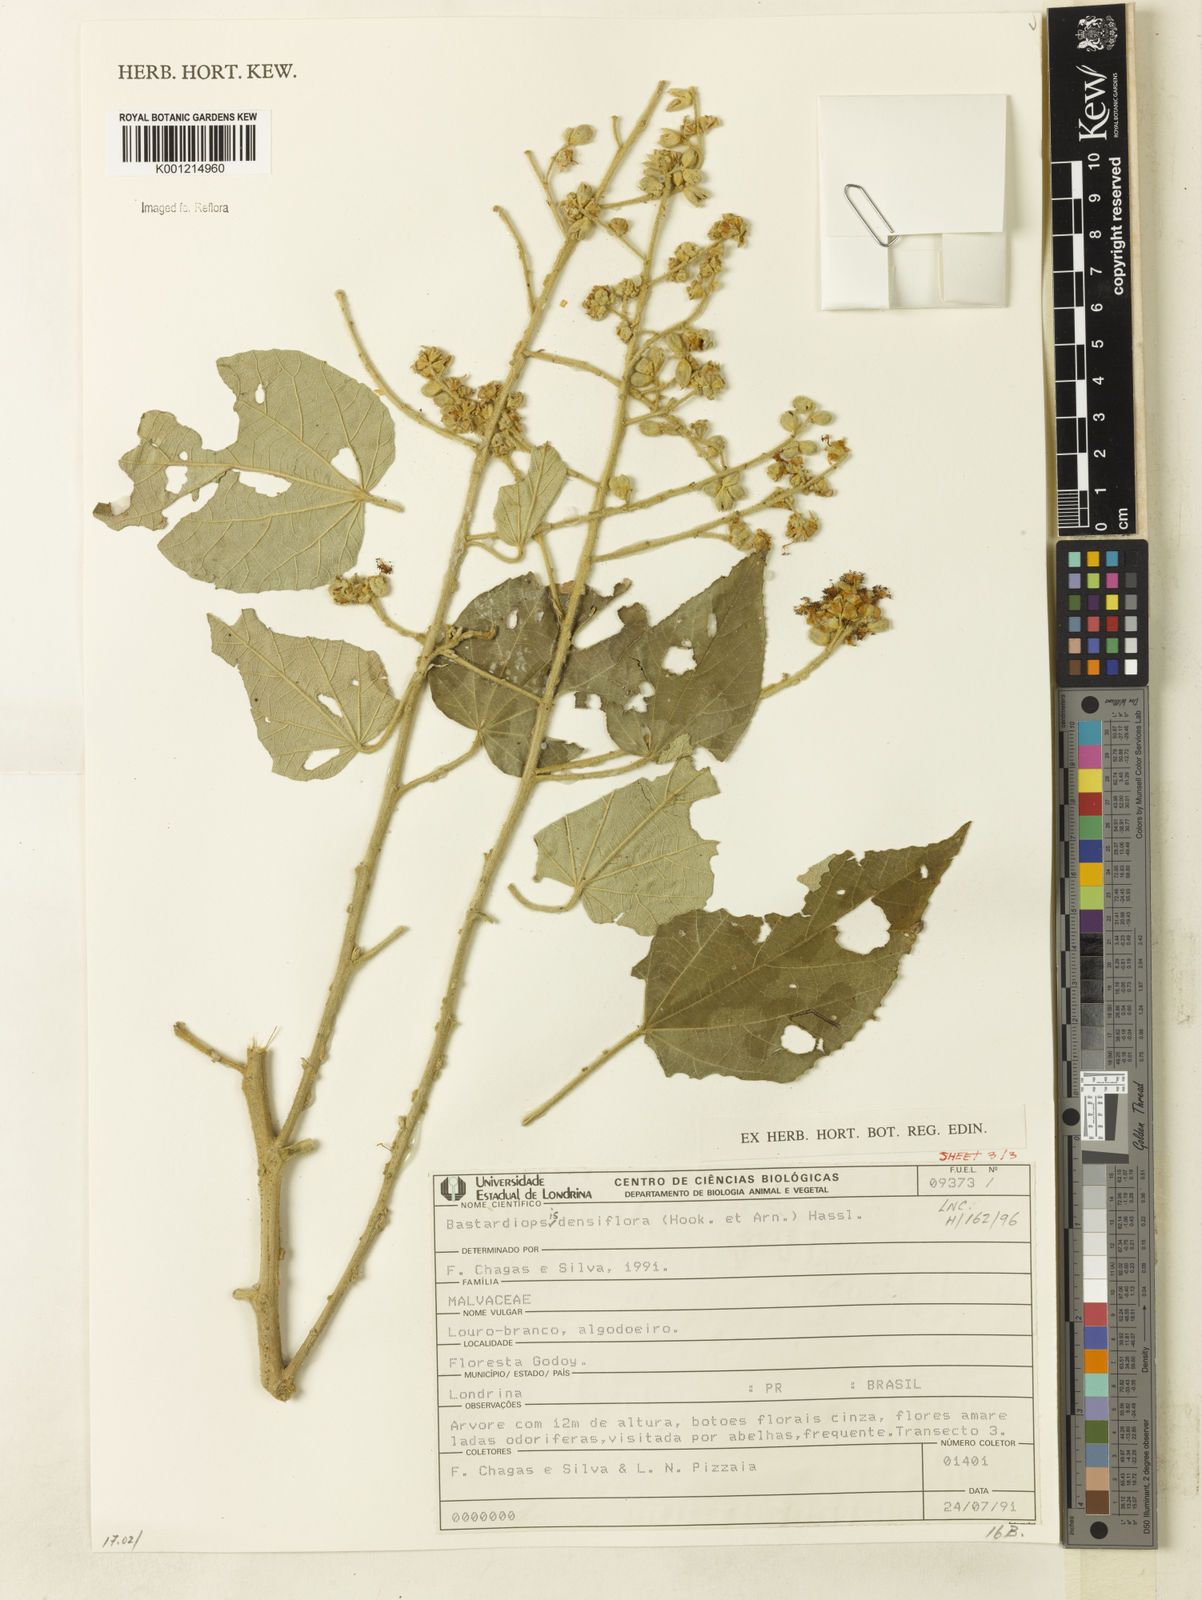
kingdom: Plantae
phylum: Tracheophyta
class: Magnoliopsida
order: Malvales
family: Malvaceae
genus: Bastardiopsis
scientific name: Bastardiopsis densiflora
